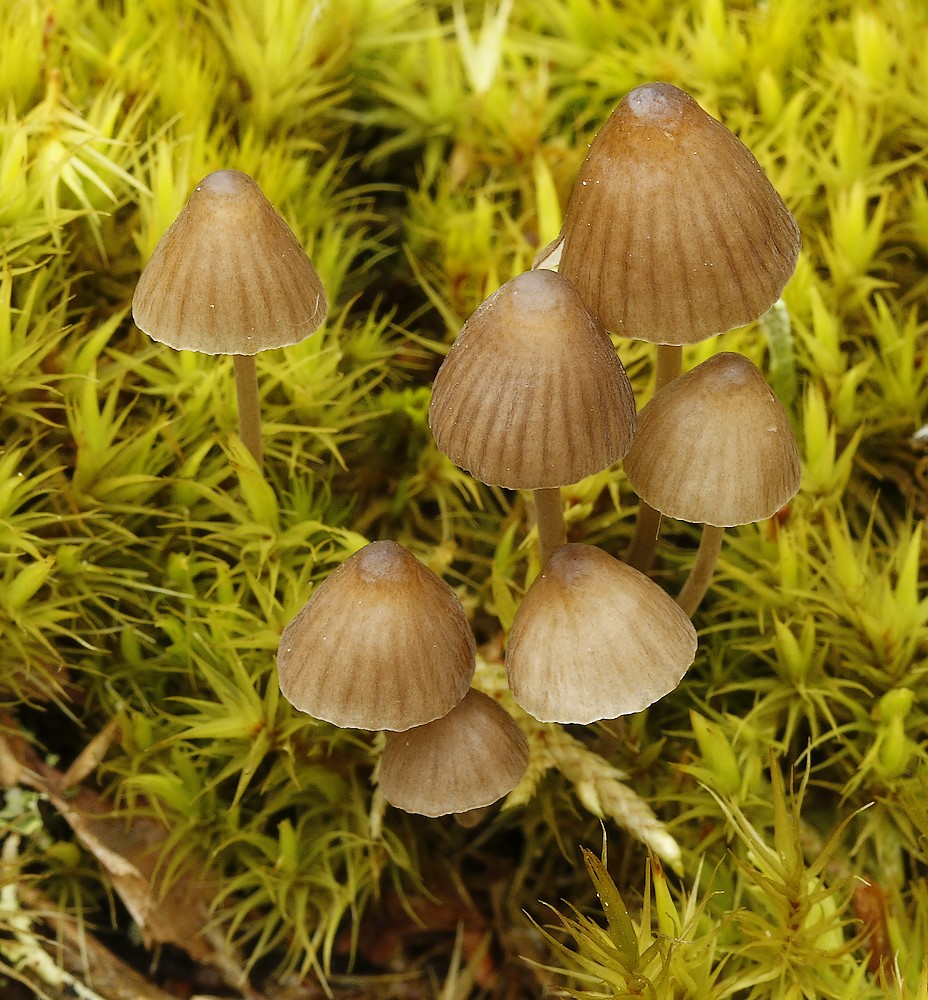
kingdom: Fungi
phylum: Basidiomycota
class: Agaricomycetes
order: Agaricales
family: Mycenaceae
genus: Mycena
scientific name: Mycena
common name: huesvamp
